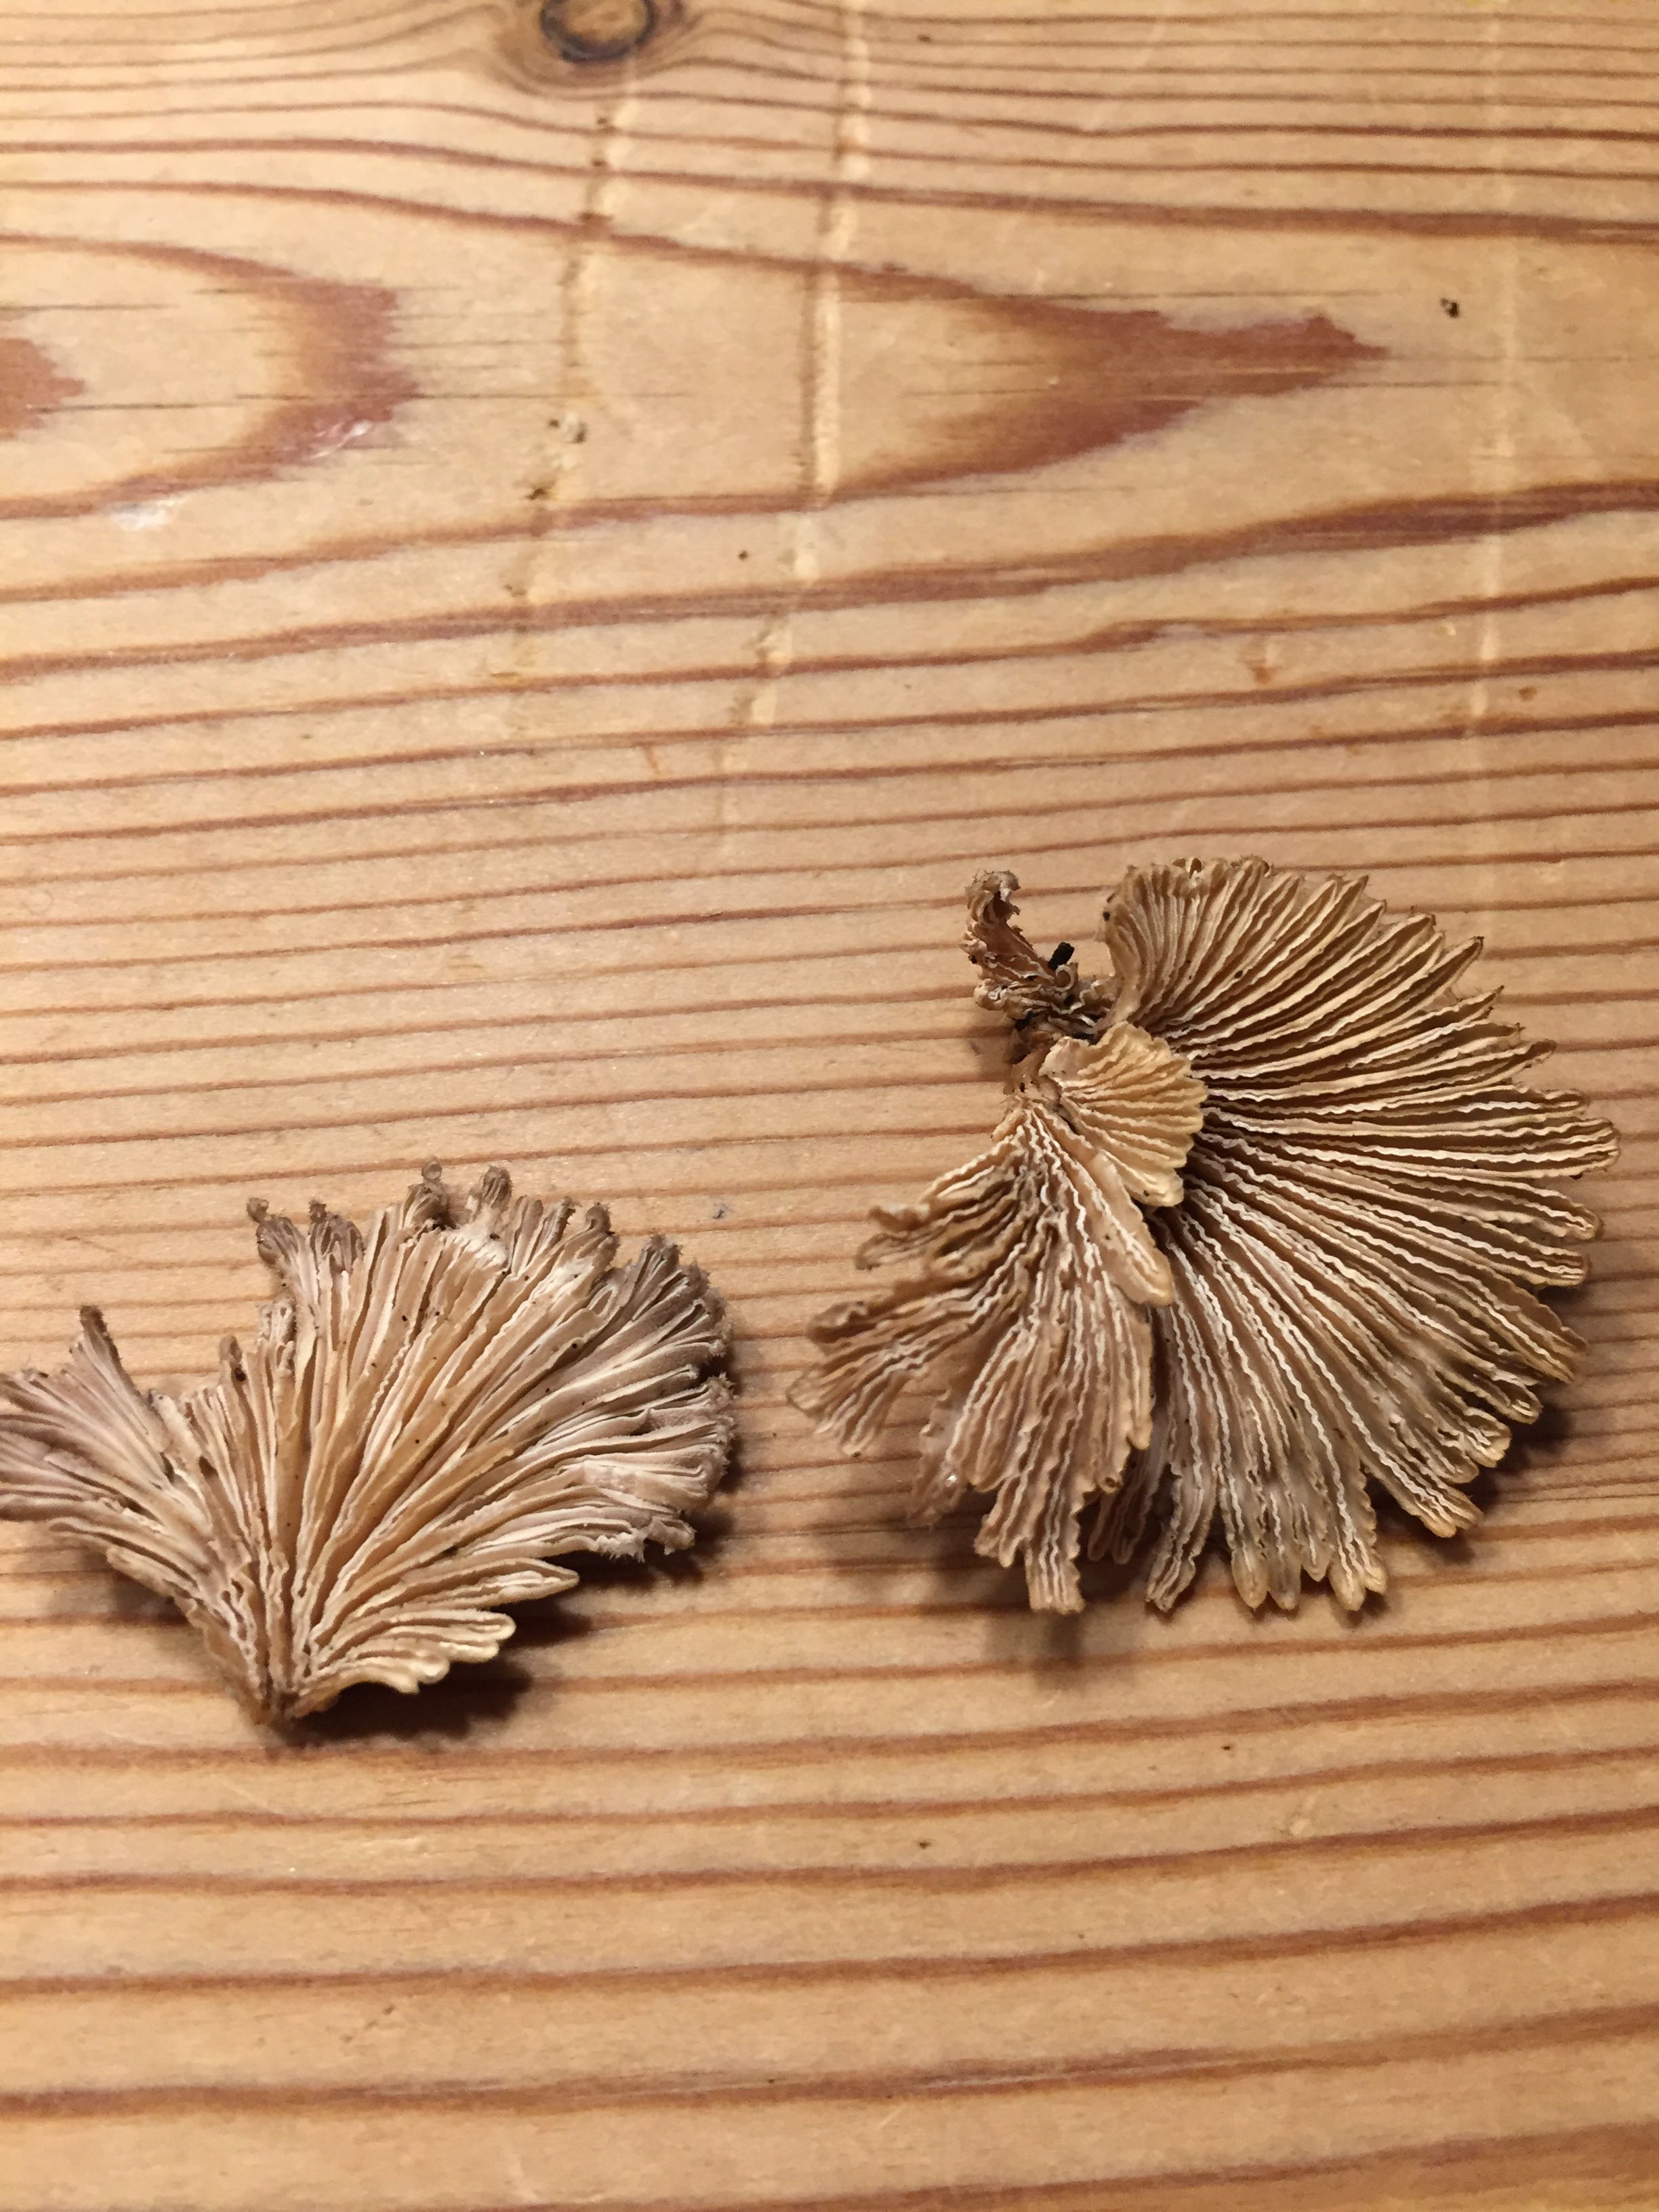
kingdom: Fungi
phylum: Basidiomycota
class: Agaricomycetes
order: Agaricales
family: Schizophyllaceae
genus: Schizophyllum
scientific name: Schizophyllum commune
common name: kløvblad
